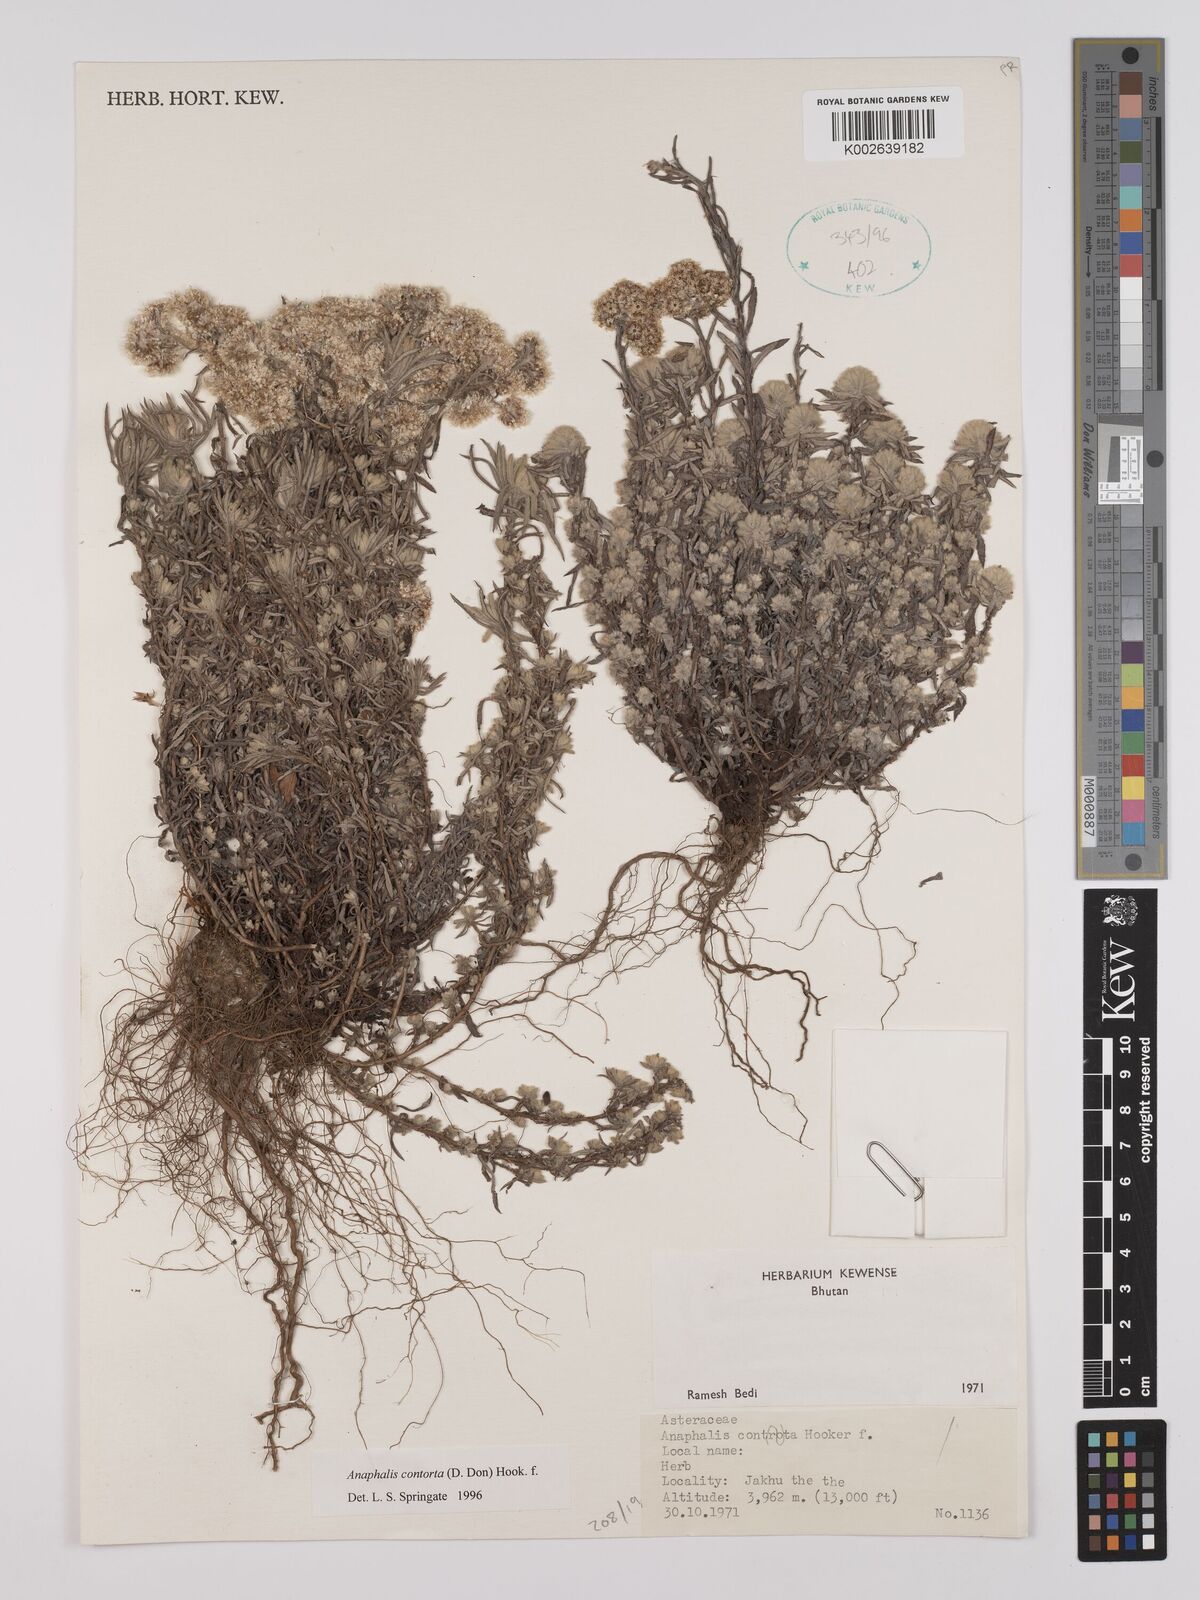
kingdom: Plantae
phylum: Tracheophyta
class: Magnoliopsida
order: Asterales
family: Asteraceae
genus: Anaphalis
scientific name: Anaphalis contorta
